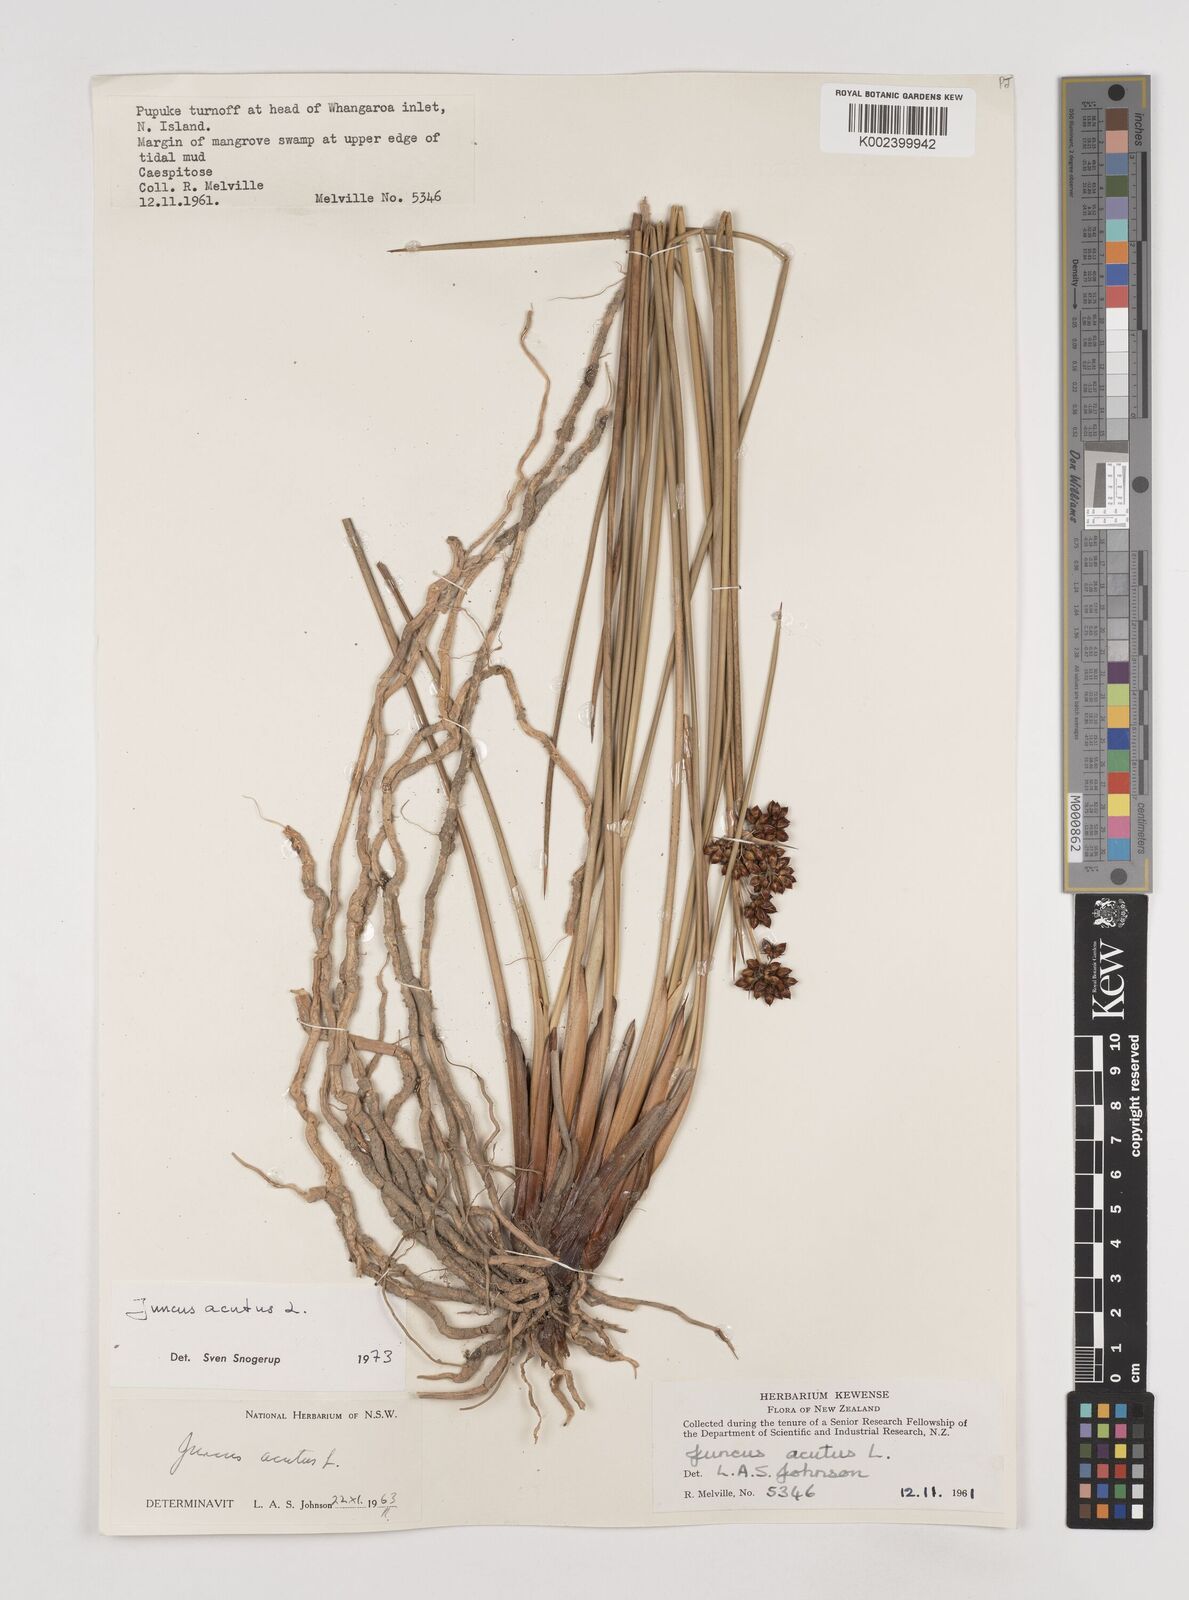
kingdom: Plantae
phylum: Tracheophyta
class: Liliopsida
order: Poales
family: Juncaceae
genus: Juncus
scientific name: Juncus acutus
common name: Sharp rush
